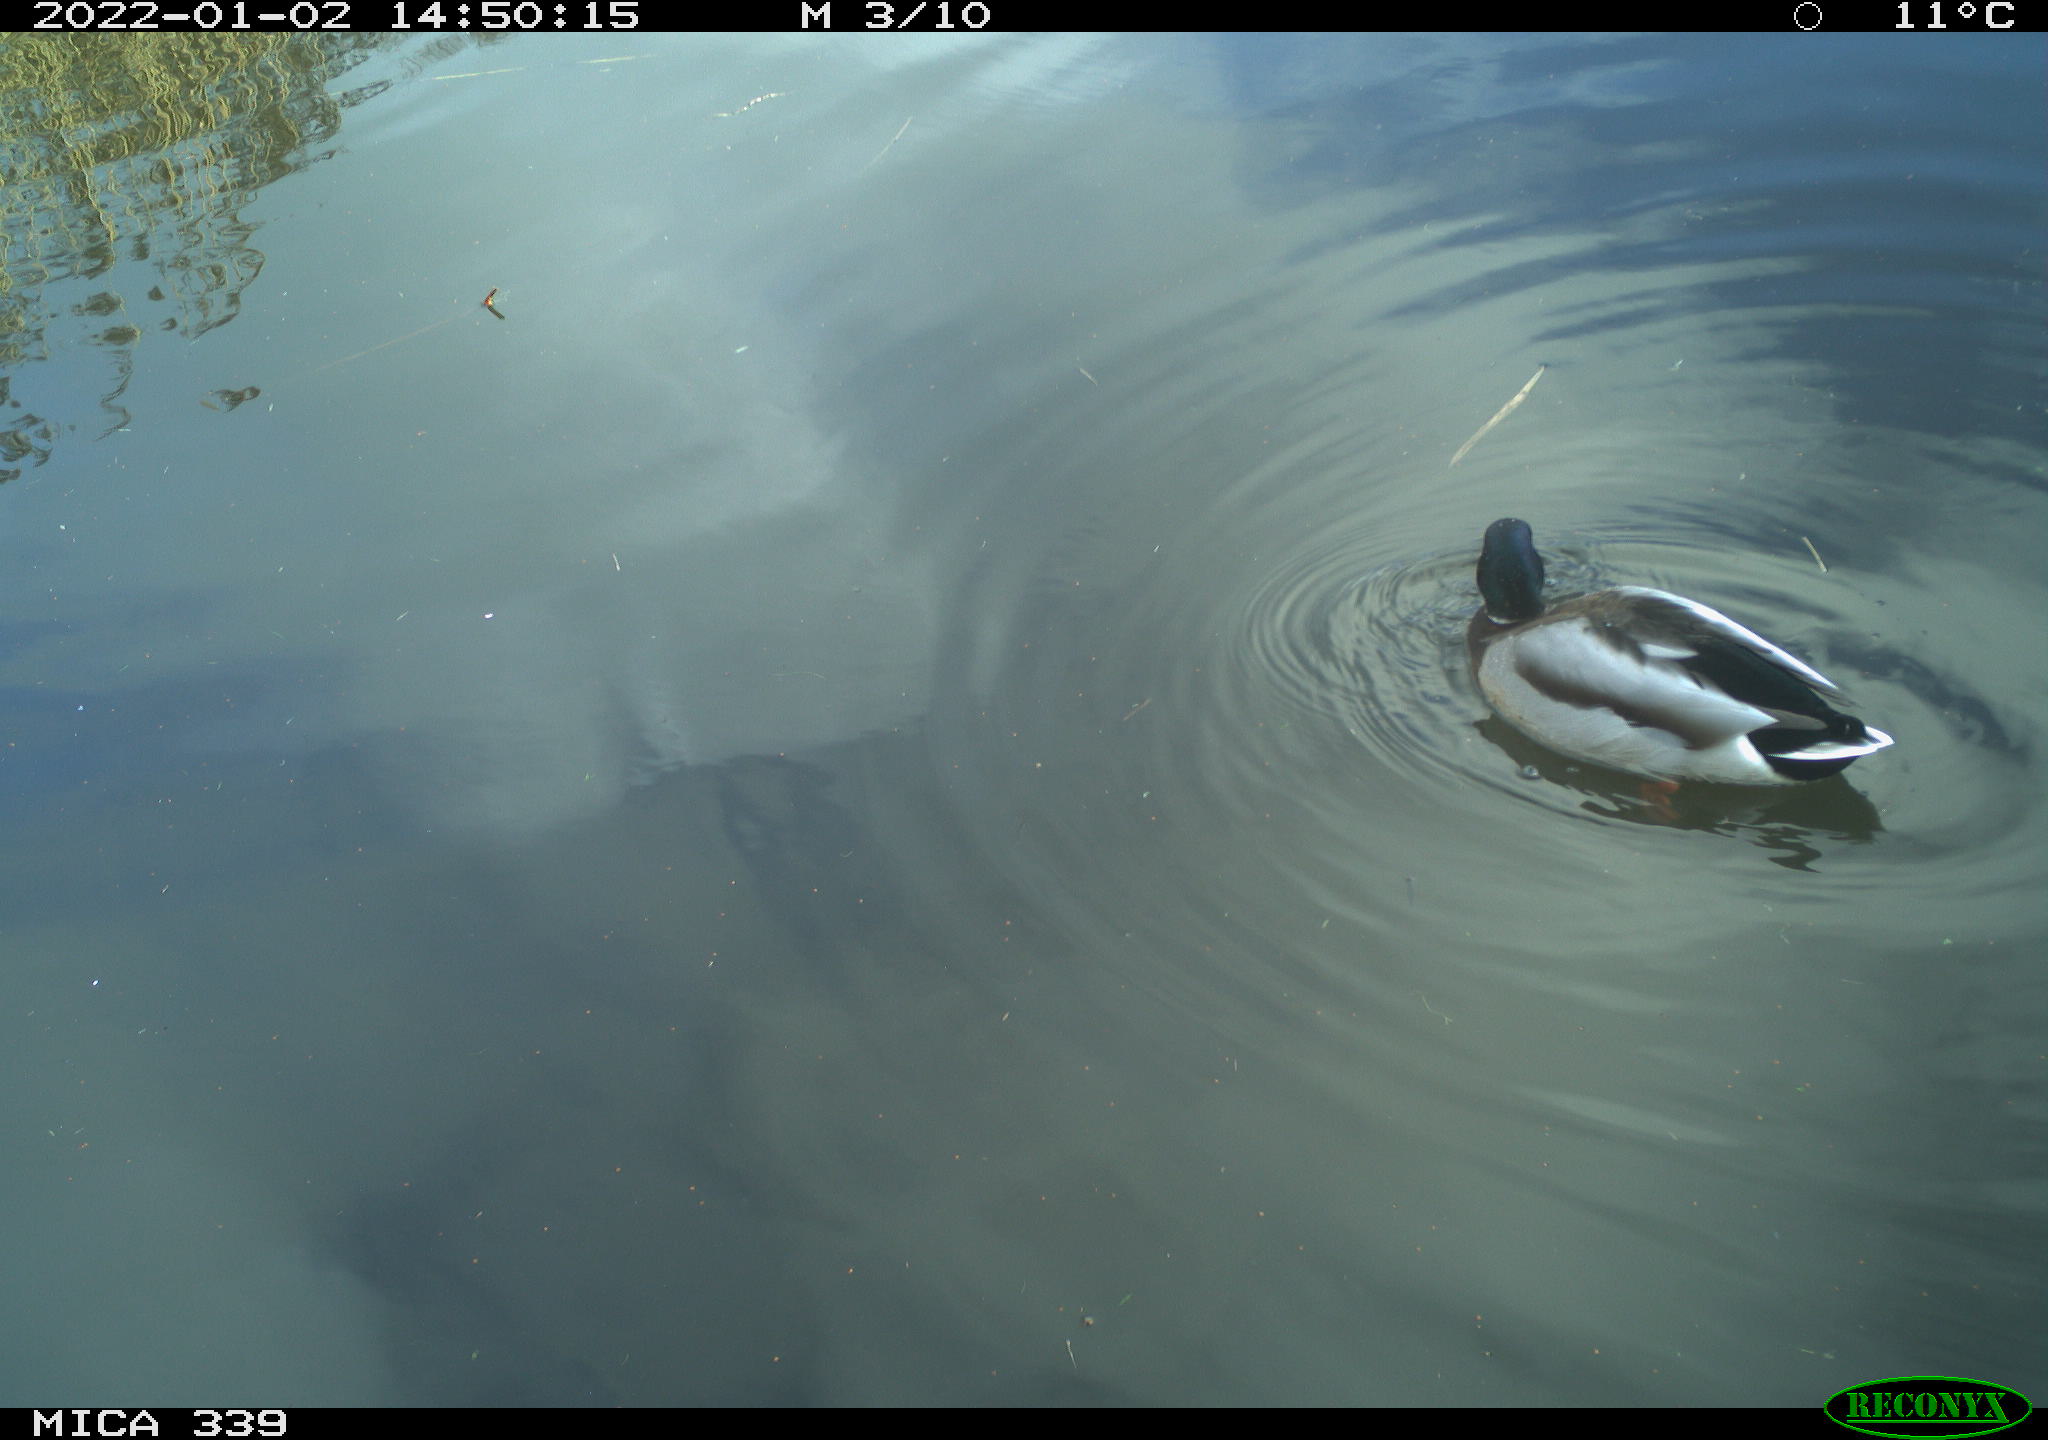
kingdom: Animalia
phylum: Chordata
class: Aves
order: Anseriformes
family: Anatidae
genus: Anas
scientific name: Anas platyrhynchos
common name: Mallard
